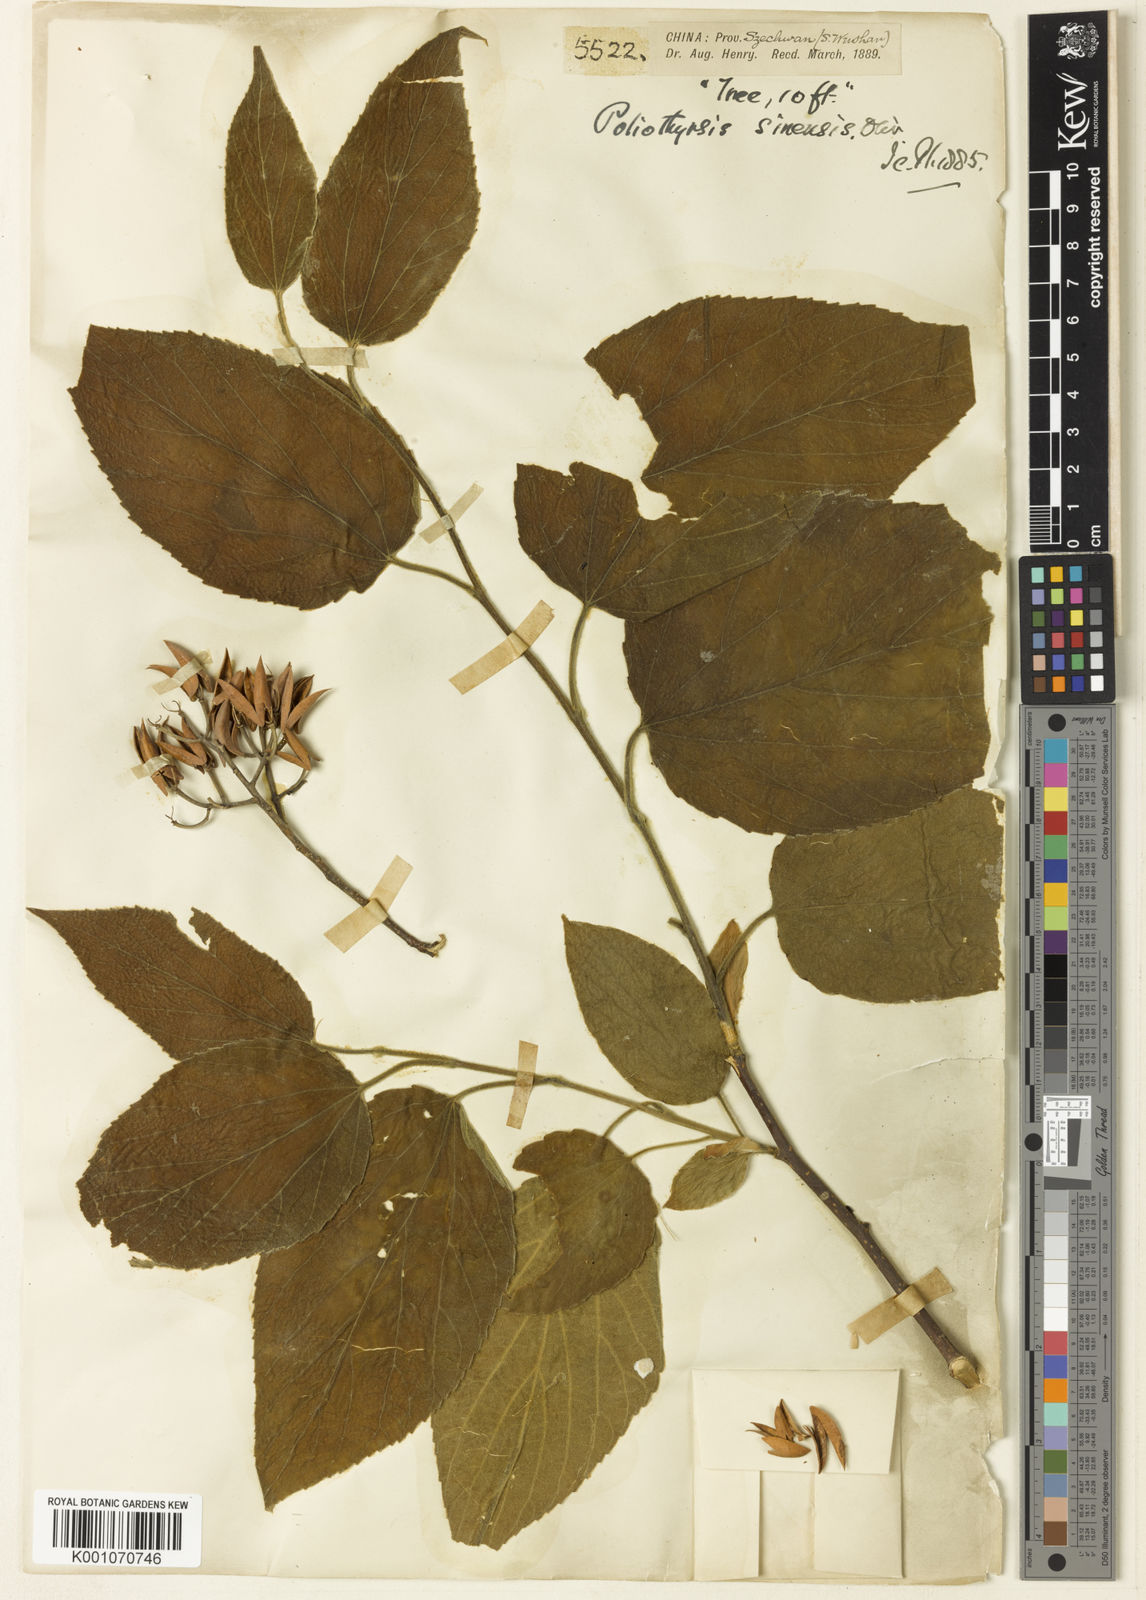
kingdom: Plantae
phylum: Tracheophyta
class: Magnoliopsida
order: Malpighiales
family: Salicaceae
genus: Poliothyrsis
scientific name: Poliothyrsis
